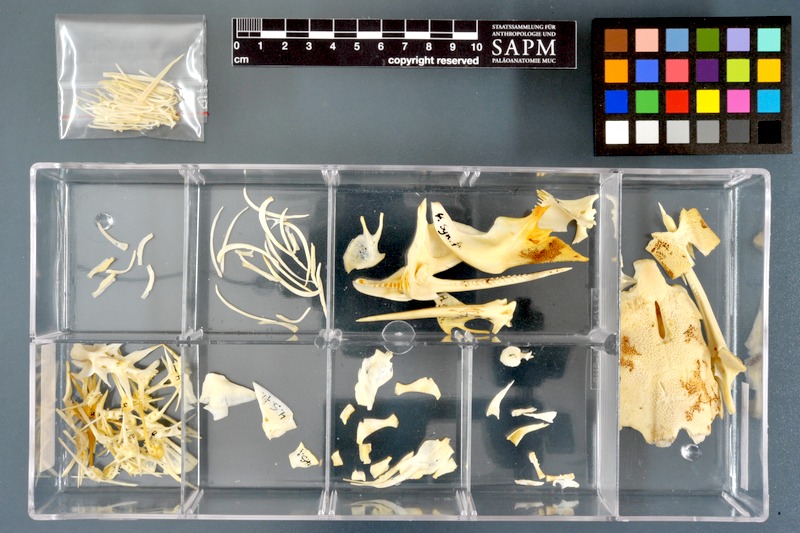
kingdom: Animalia
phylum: Chordata
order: Siluriformes
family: Mochokidae
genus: Synodontis
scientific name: Synodontis frontosus
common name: Sudan squeaker
